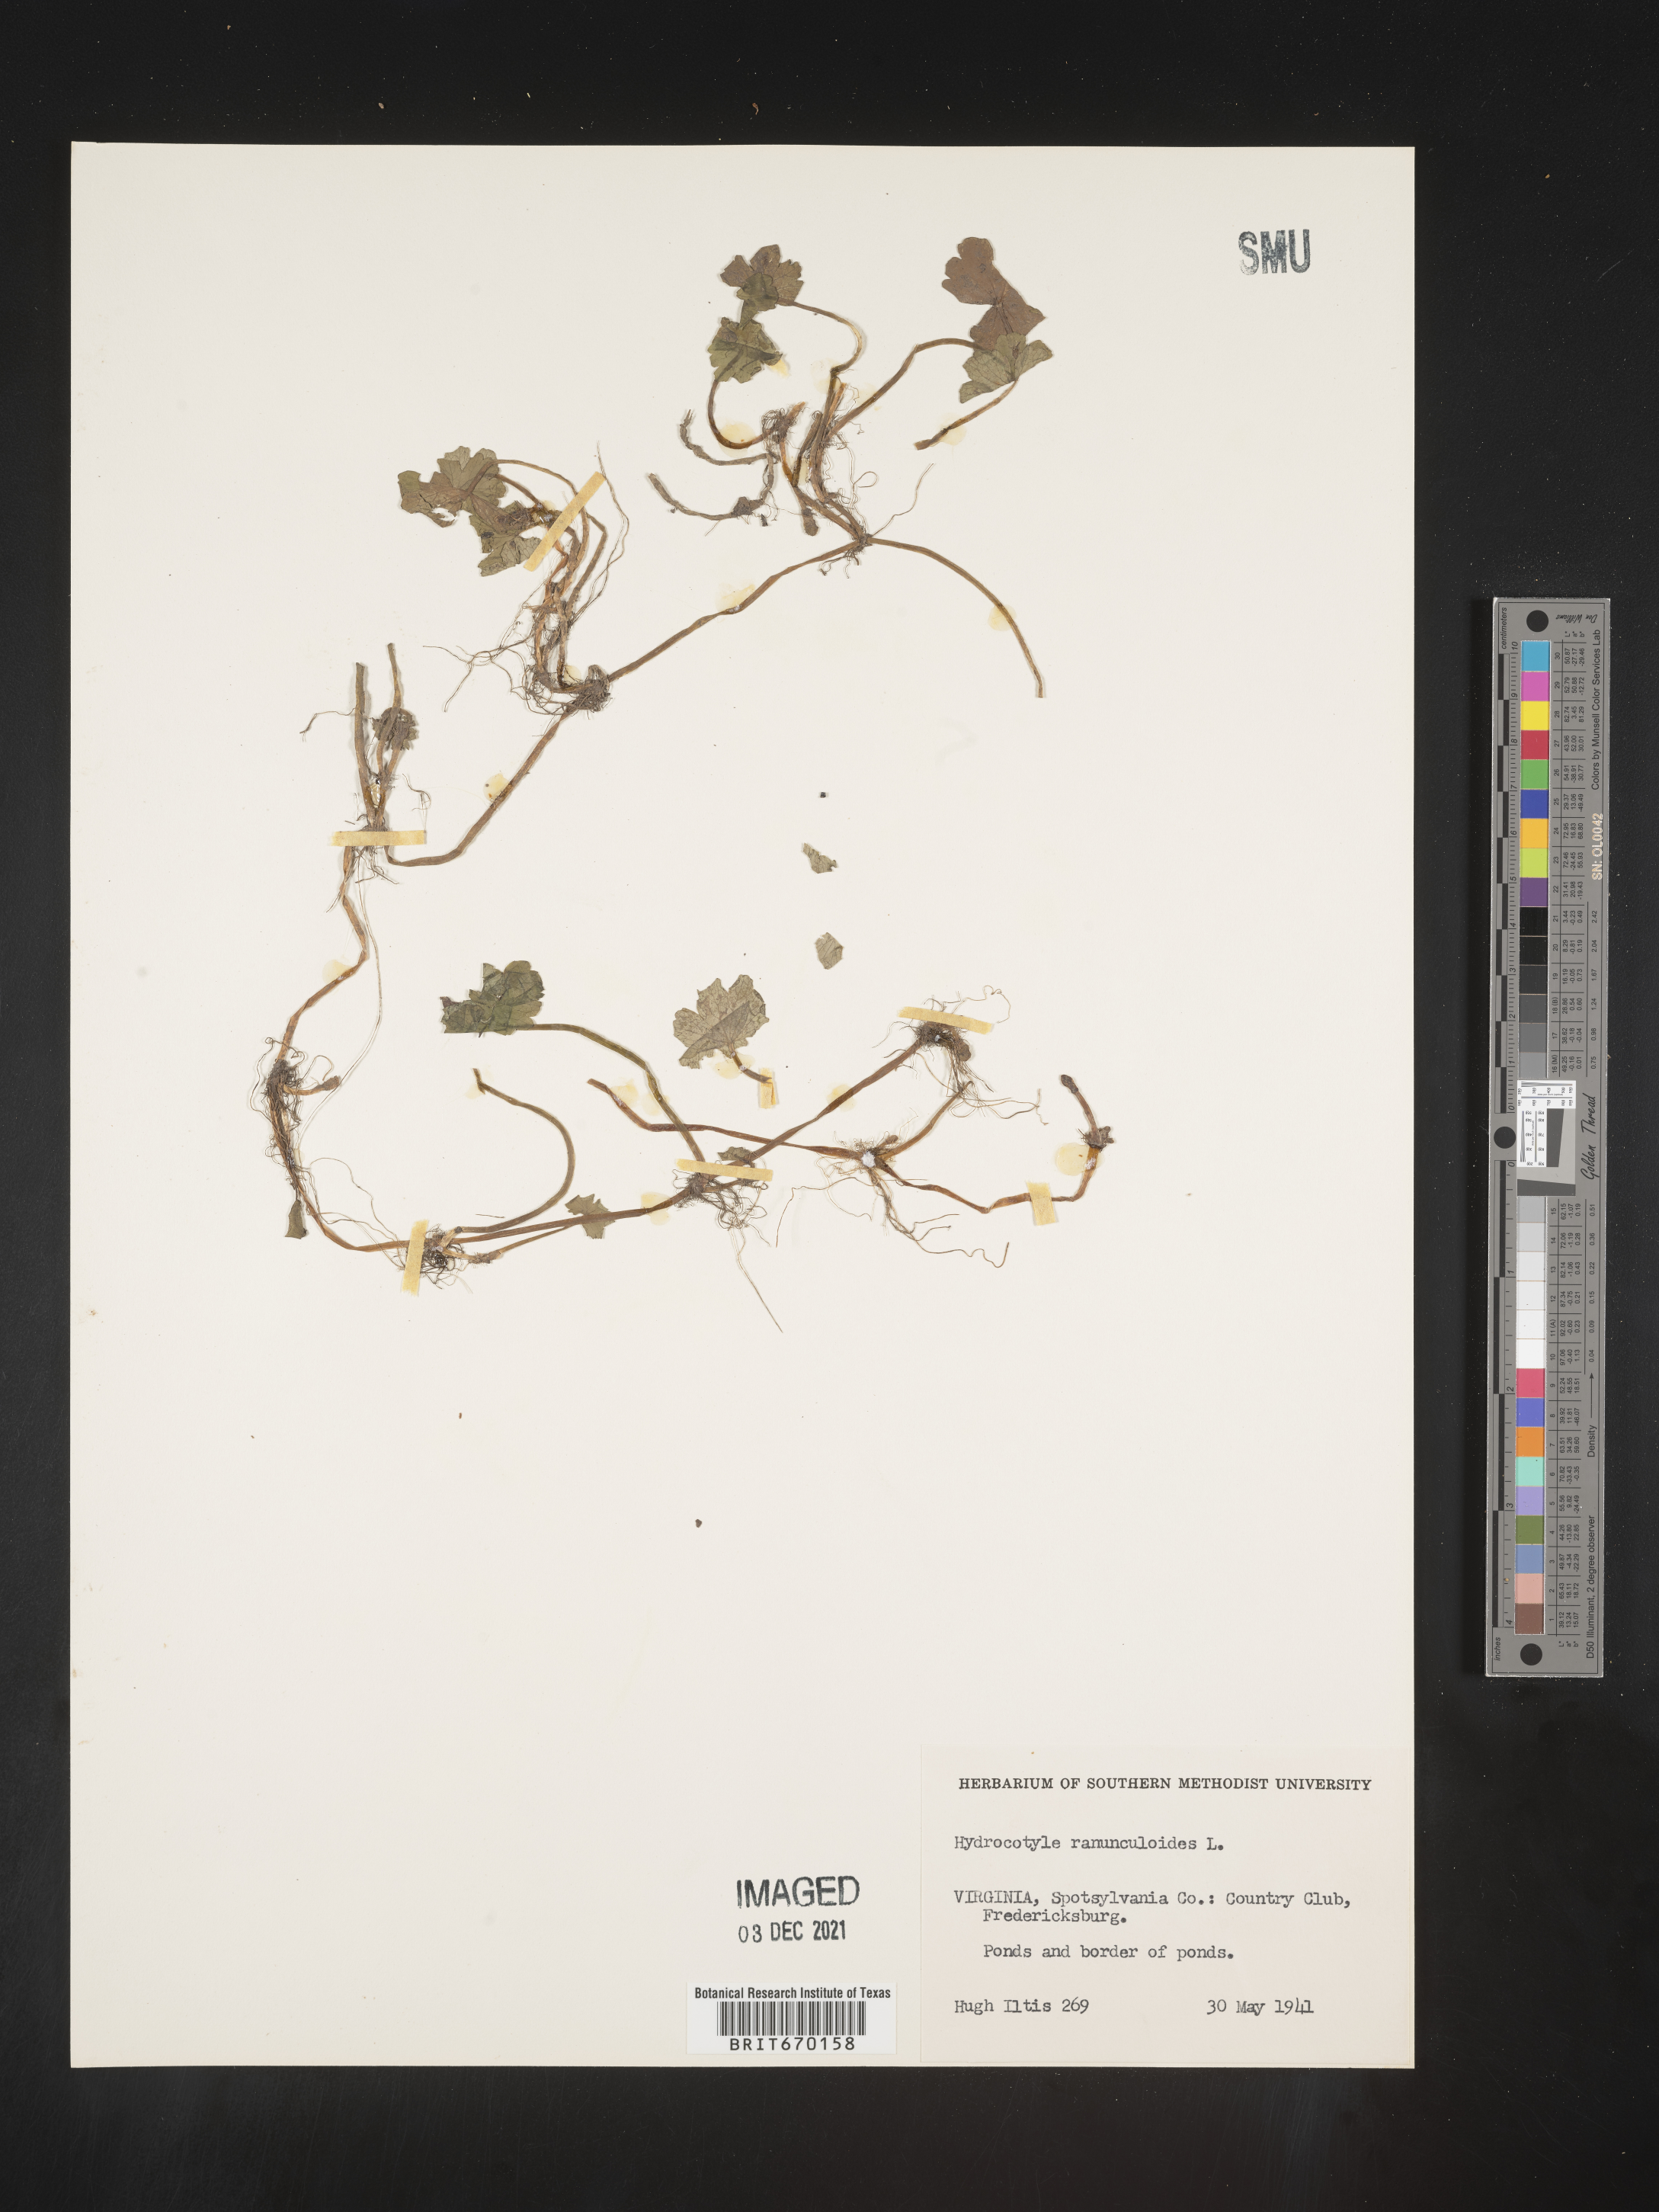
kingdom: Plantae
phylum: Tracheophyta
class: Magnoliopsida
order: Apiales
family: Araliaceae
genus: Hydrocotyle
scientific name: Hydrocotyle ranunculoides
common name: Floating pennywort
